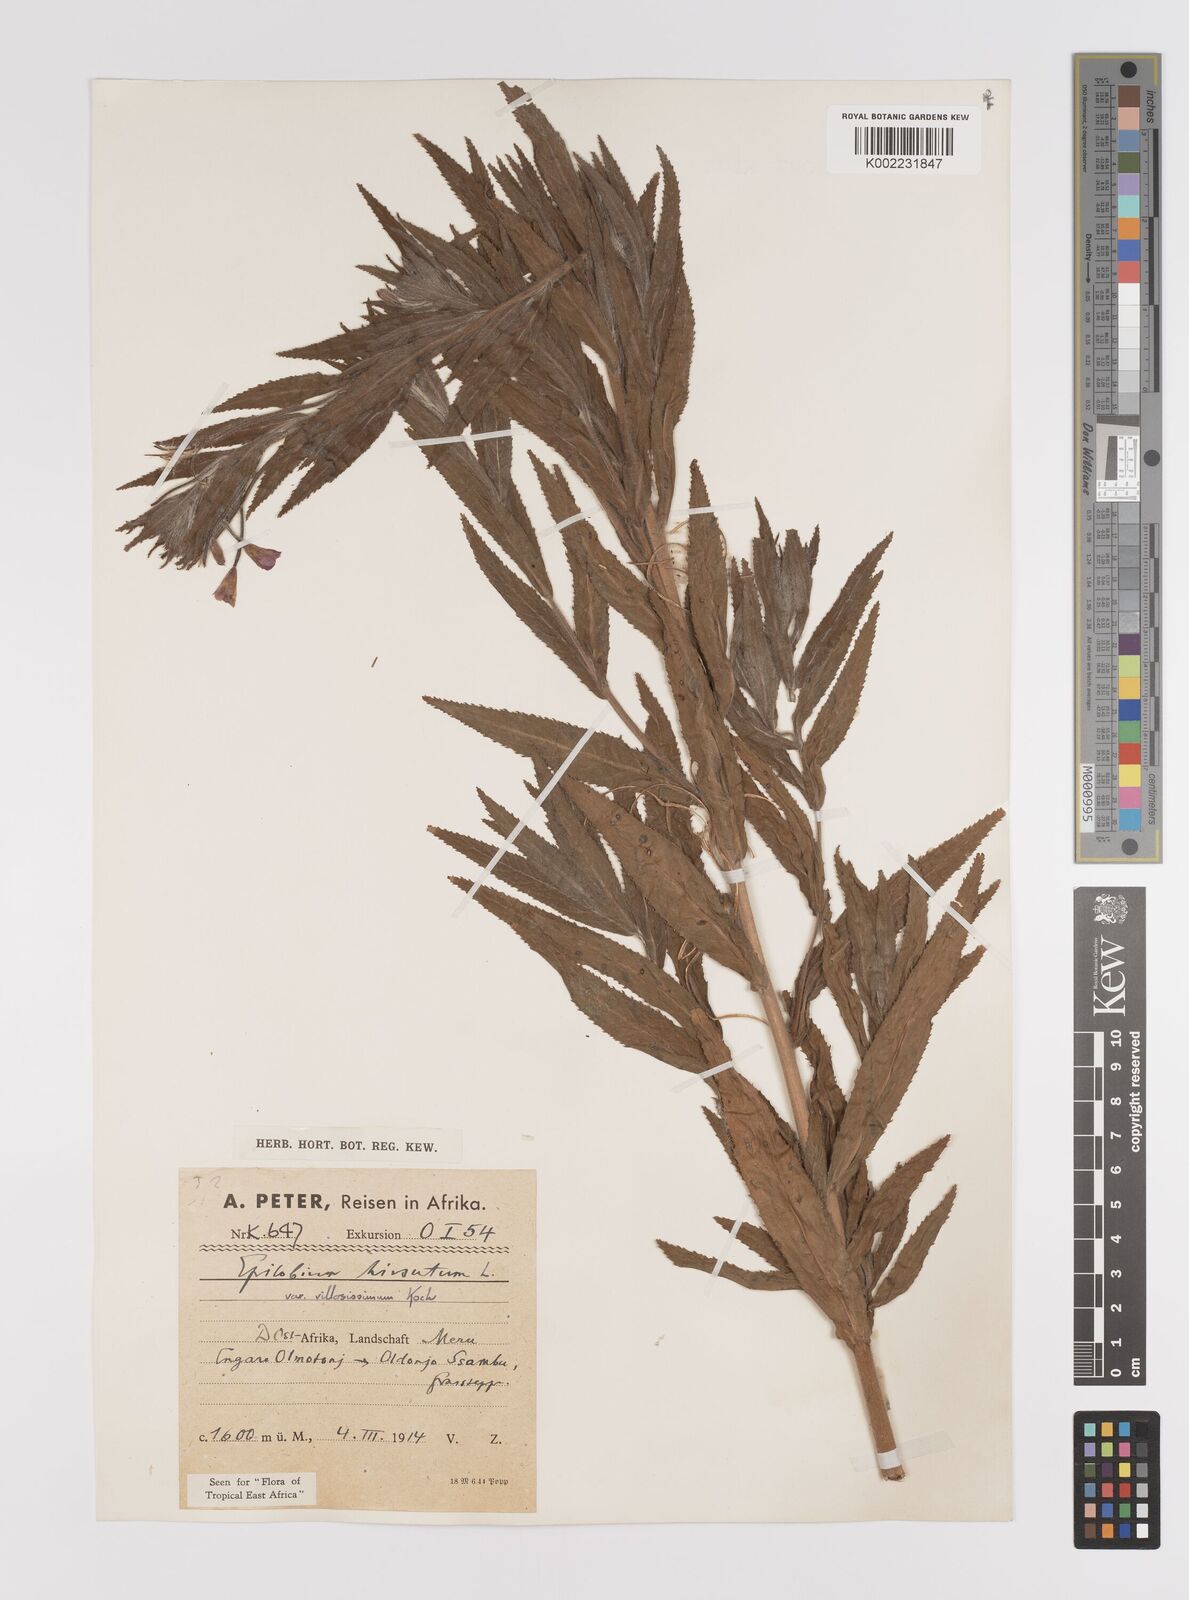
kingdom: Plantae
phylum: Tracheophyta
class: Magnoliopsida
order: Myrtales
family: Onagraceae
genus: Epilobium
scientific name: Epilobium hirsutum
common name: Great willowherb
